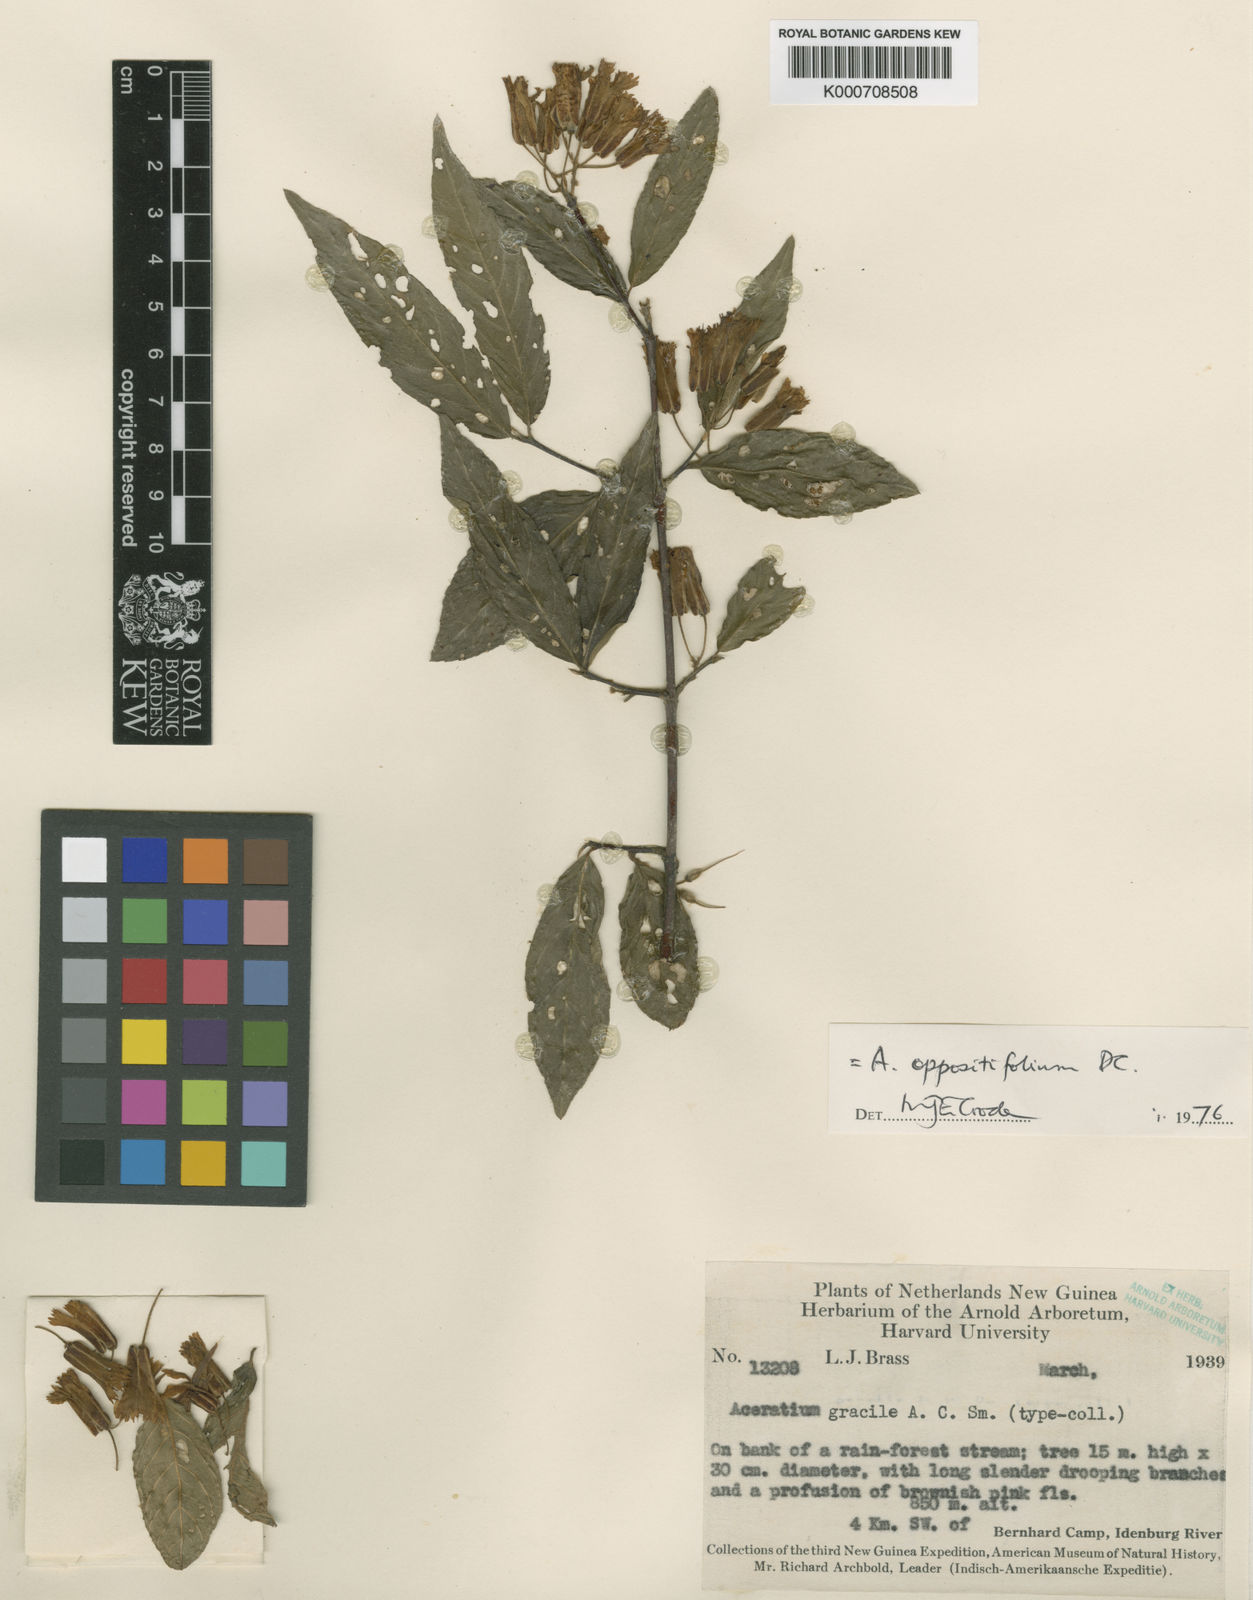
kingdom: Plantae
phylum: Tracheophyta
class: Magnoliopsida
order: Oxalidales
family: Elaeocarpaceae
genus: Aceratium
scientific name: Aceratium oppositifolium
